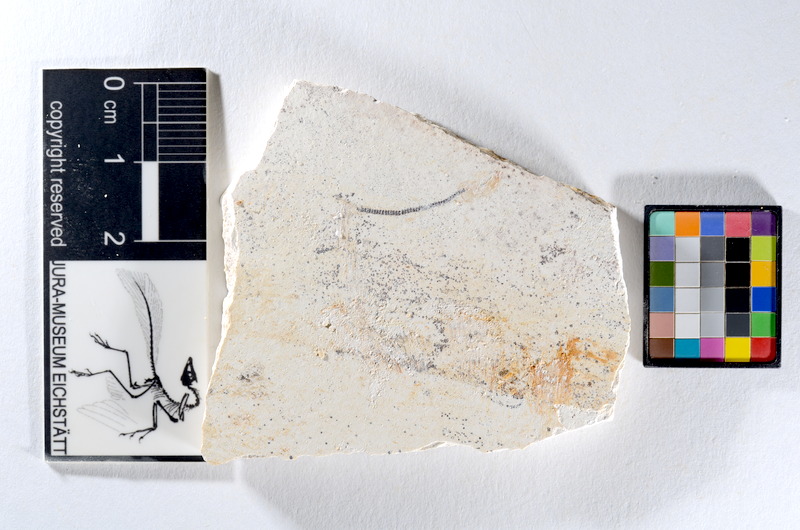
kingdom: Animalia
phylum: Chordata
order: Salmoniformes
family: Orthogonikleithridae
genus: Orthogonikleithrus
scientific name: Orthogonikleithrus hoelli
